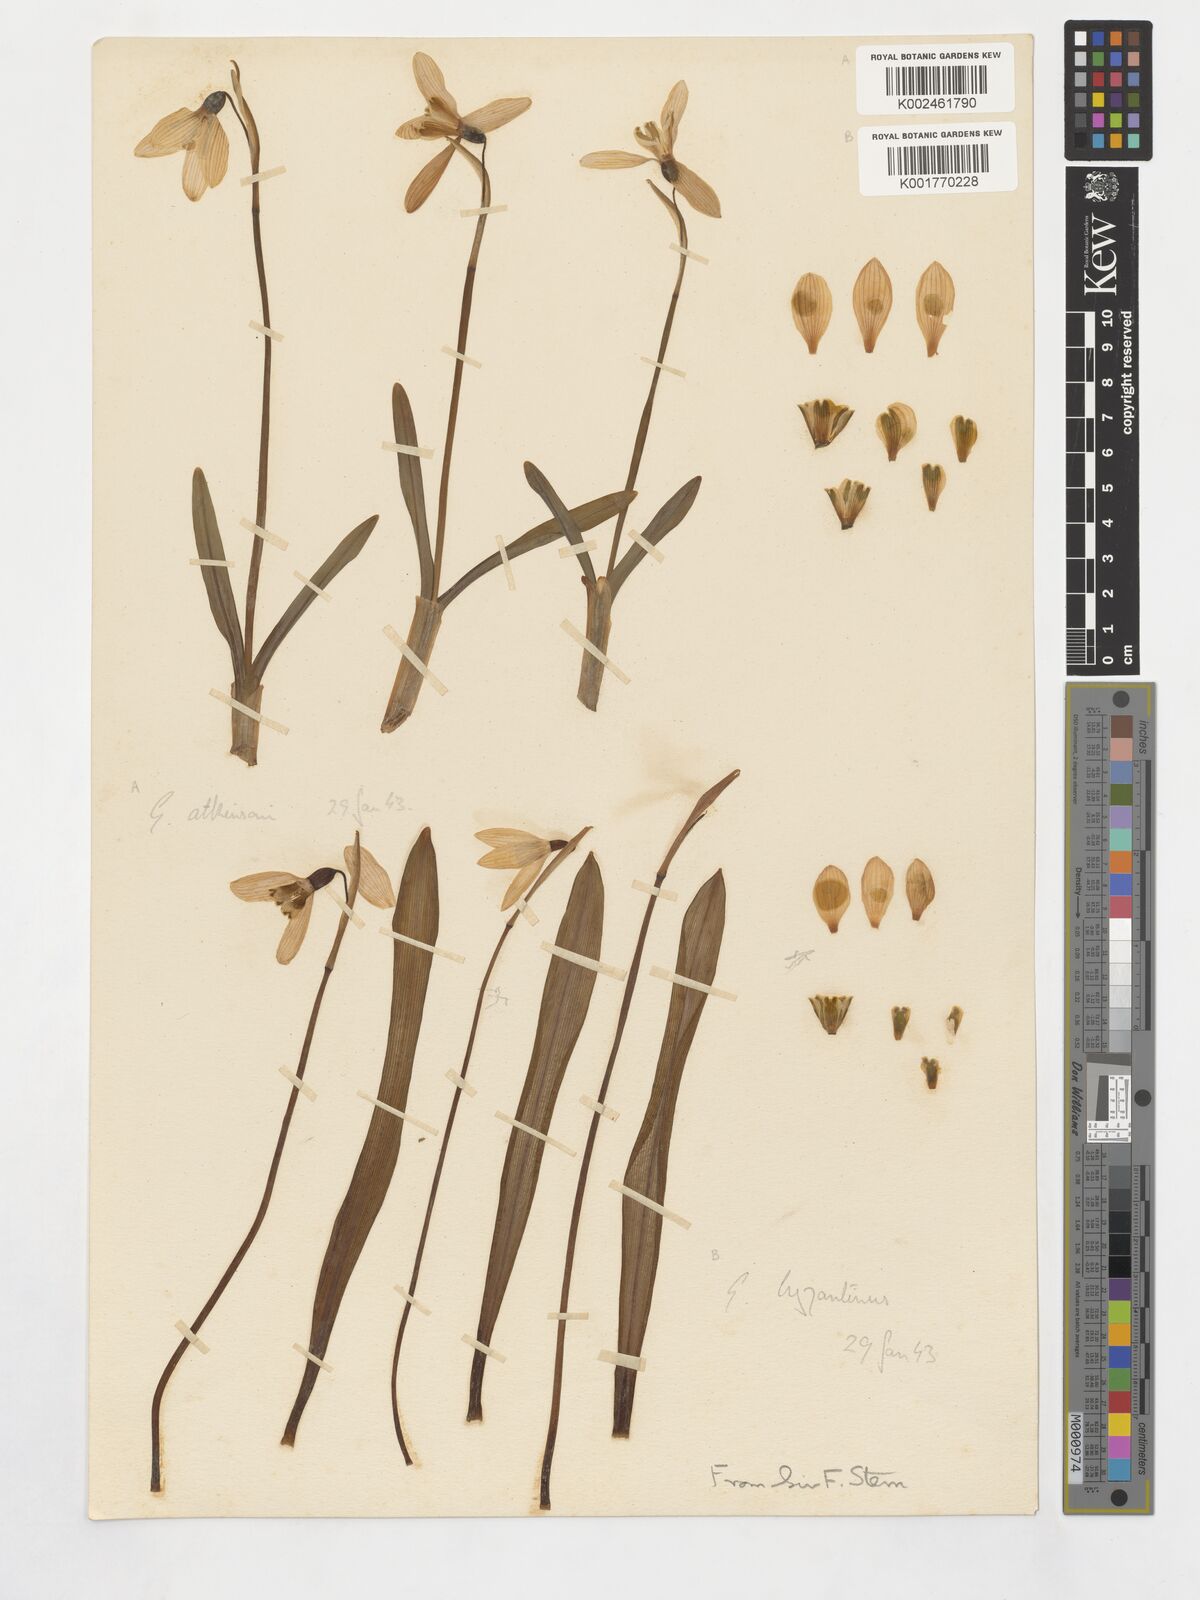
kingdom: Plantae
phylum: Tracheophyta
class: Liliopsida
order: Asparagales
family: Amaryllidaceae
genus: Galanthus
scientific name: Galanthus
